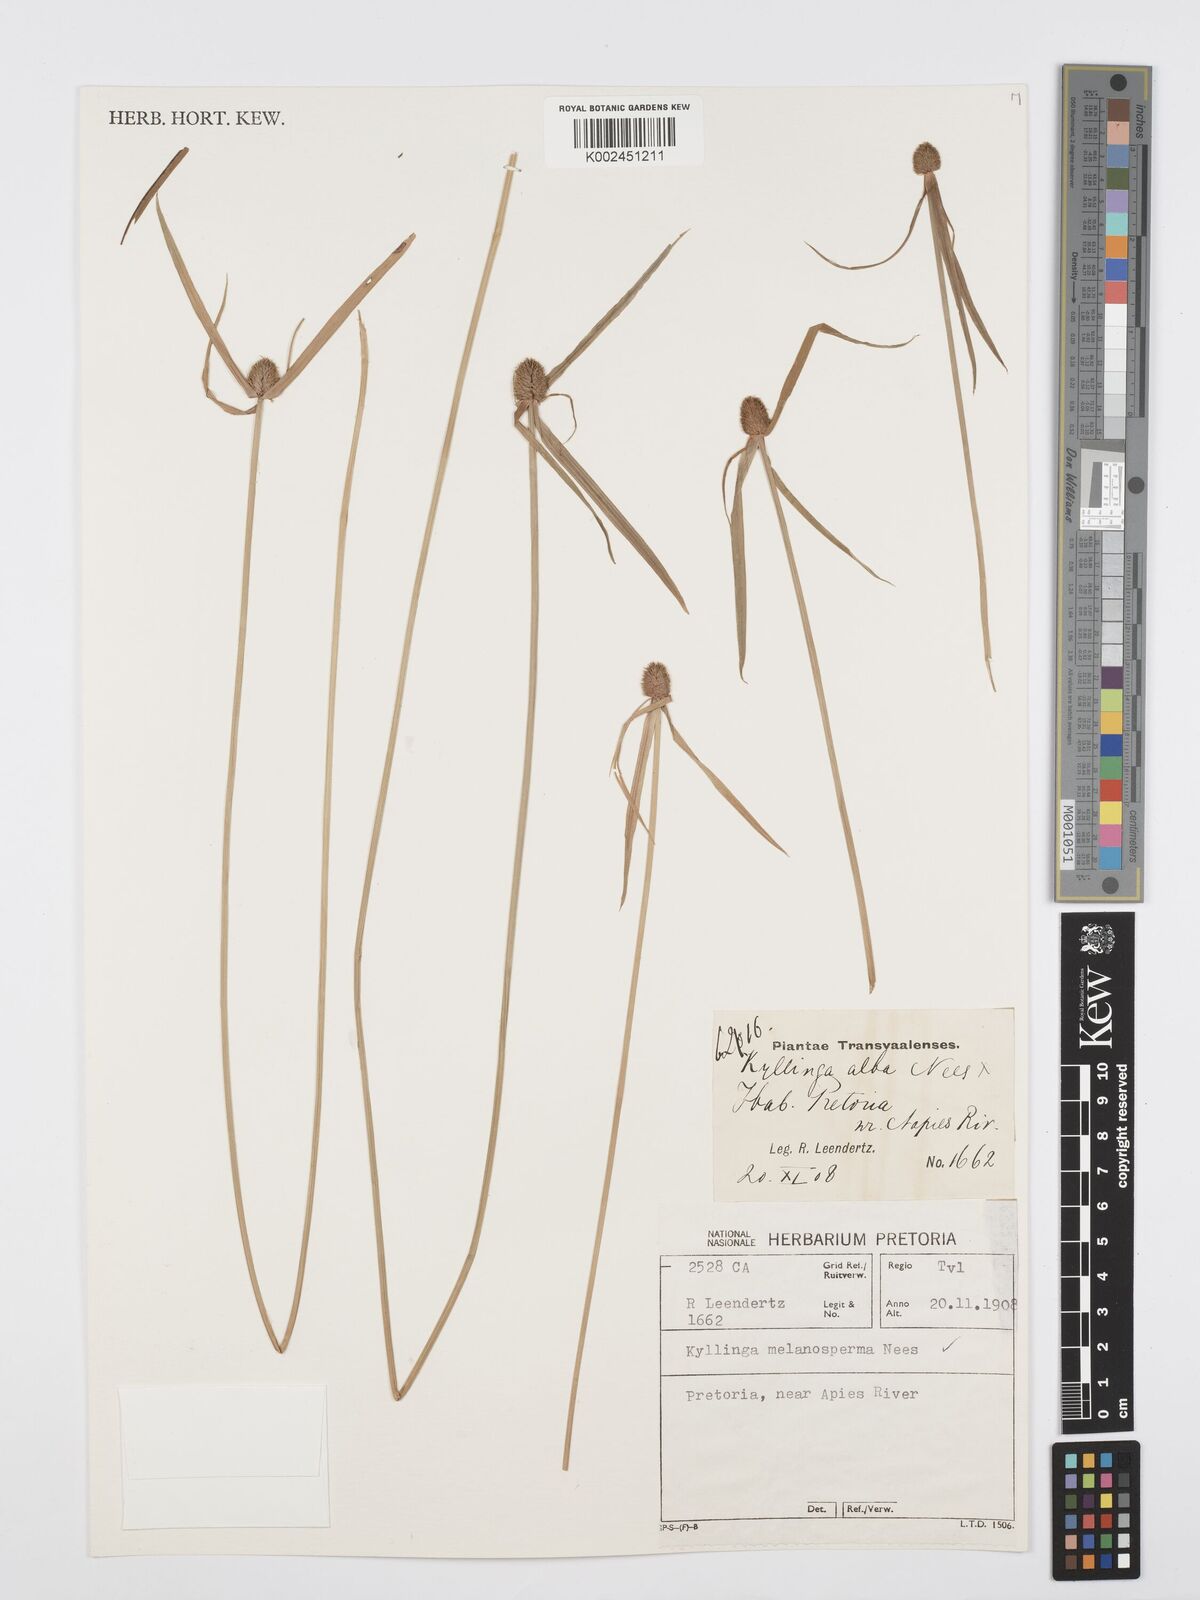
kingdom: Plantae
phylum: Tracheophyta
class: Liliopsida
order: Poales
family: Cyperaceae
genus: Cyperus
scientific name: Cyperus melanospermus
